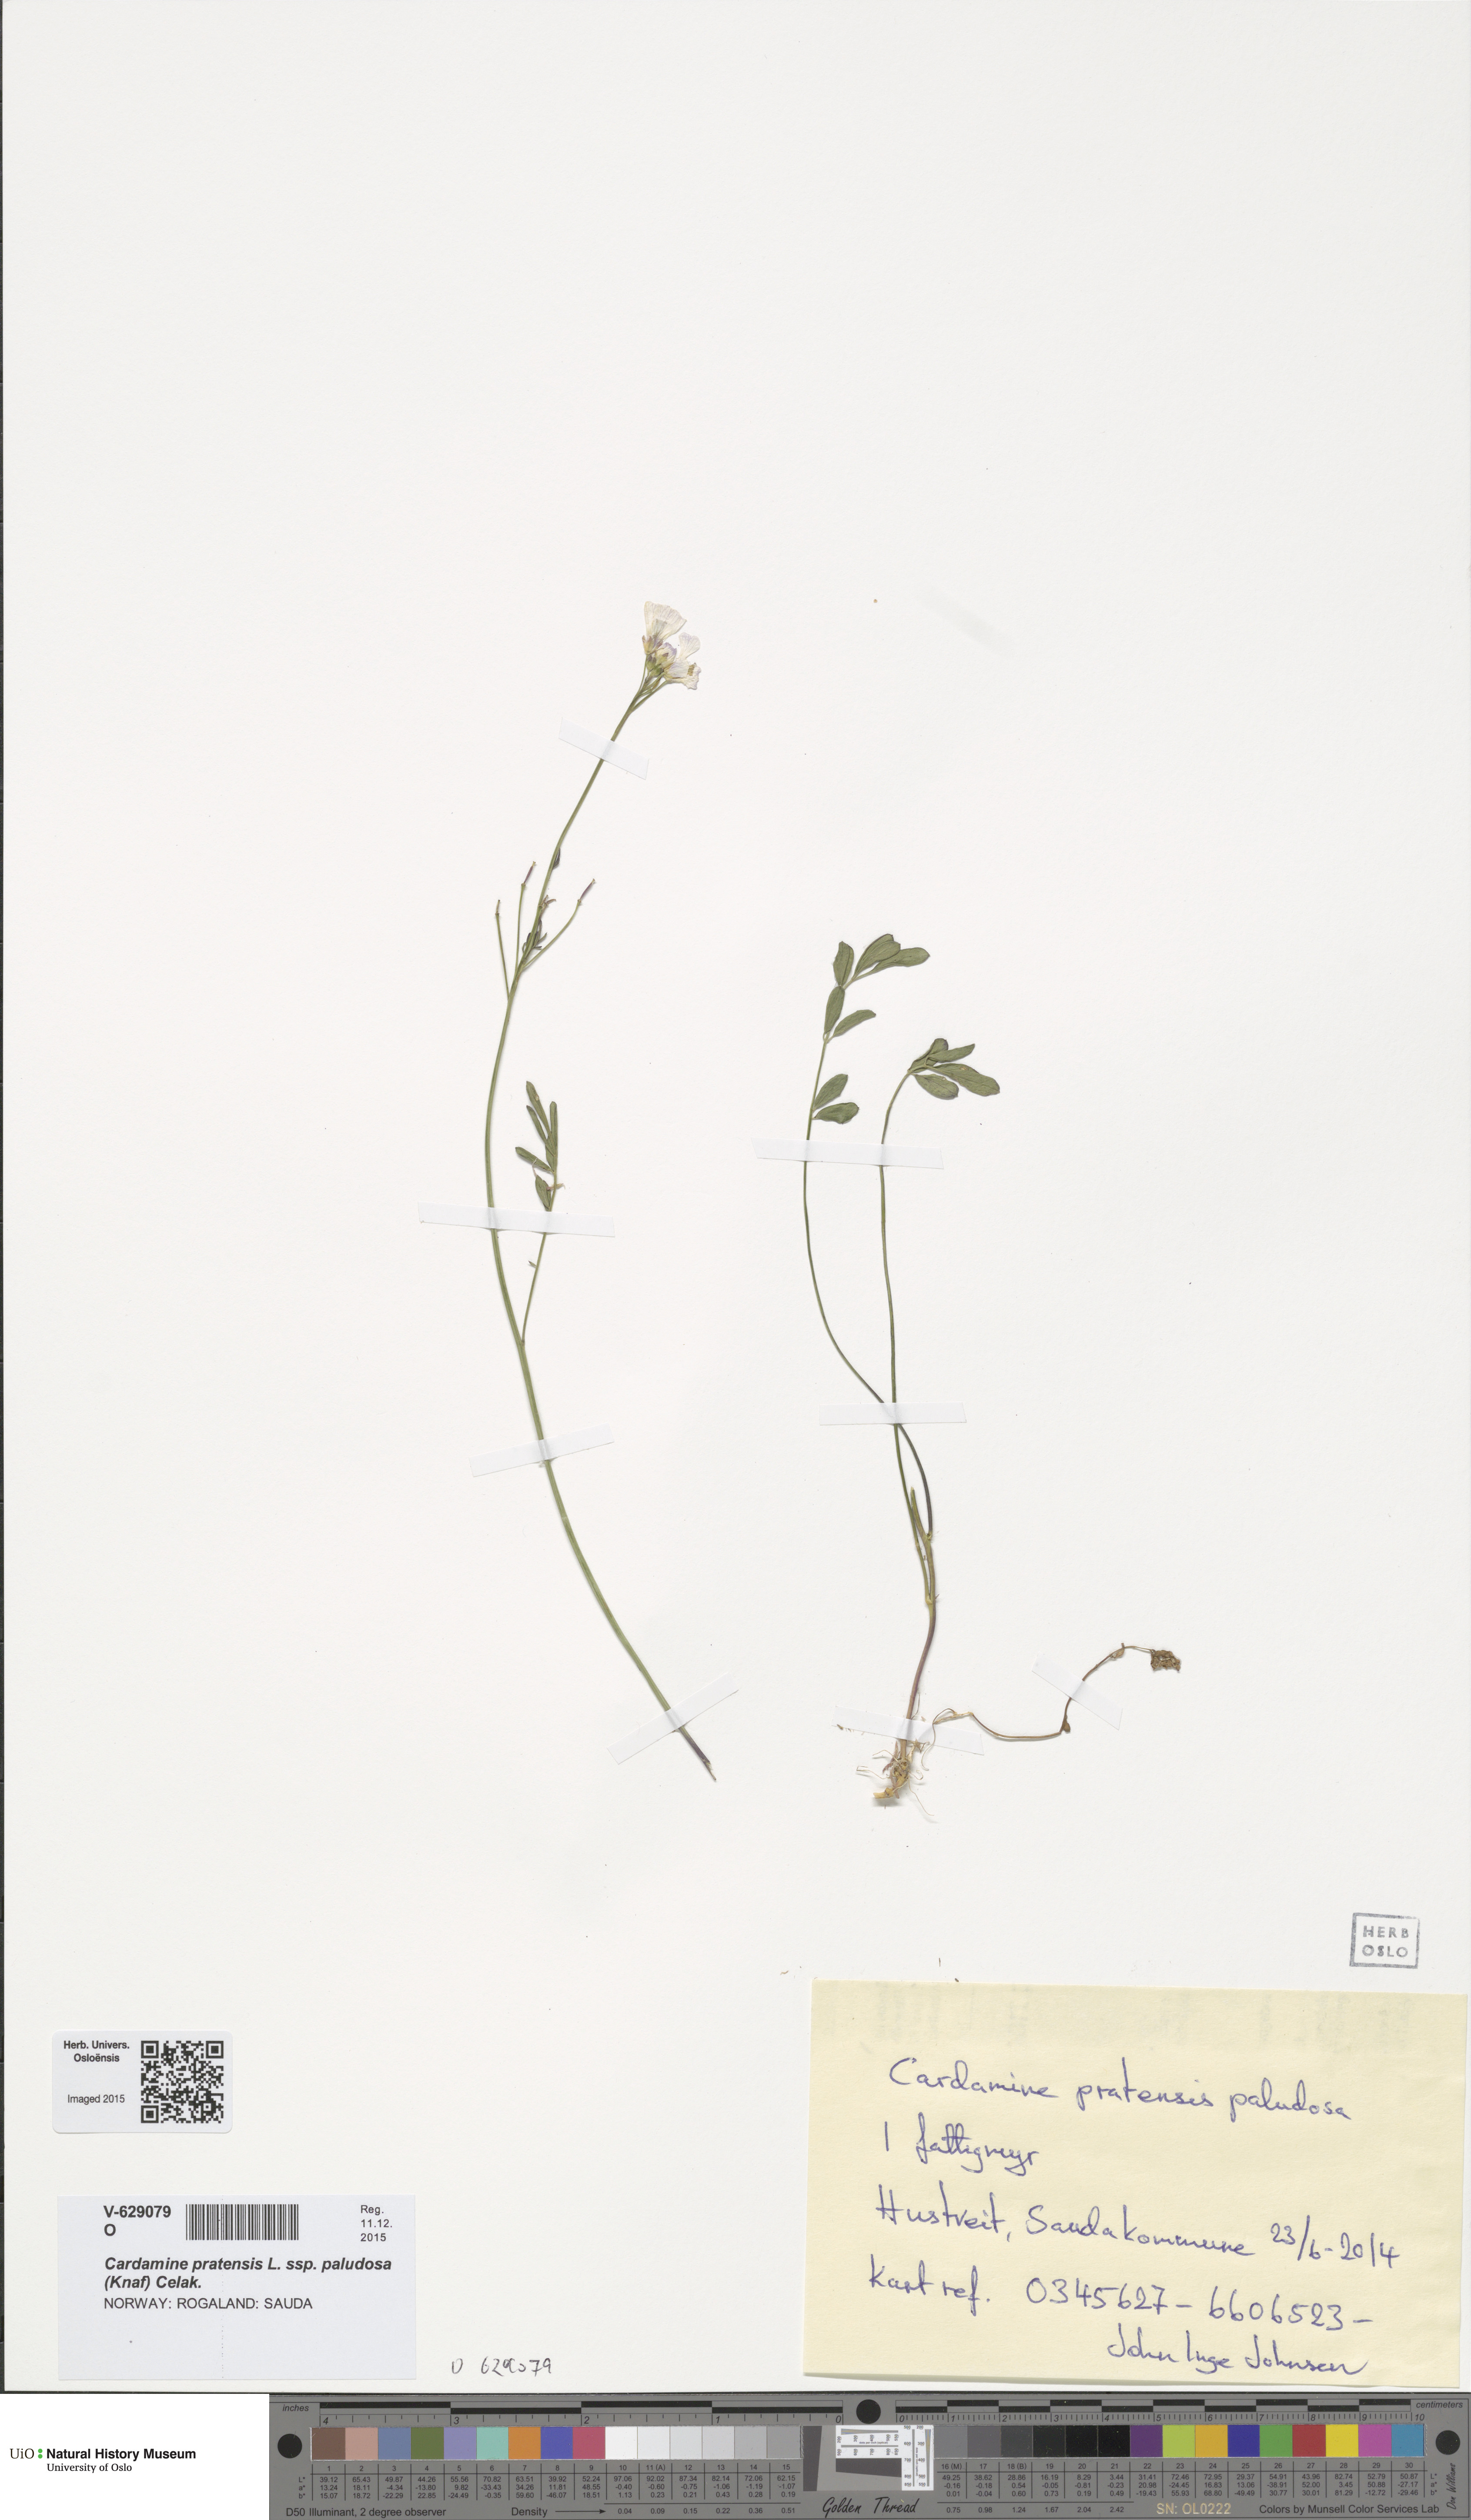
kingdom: Plantae
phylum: Tracheophyta
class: Magnoliopsida
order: Brassicales
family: Brassicaceae
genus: Cardamine
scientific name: Cardamine dentata
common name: Toothed bittercress
